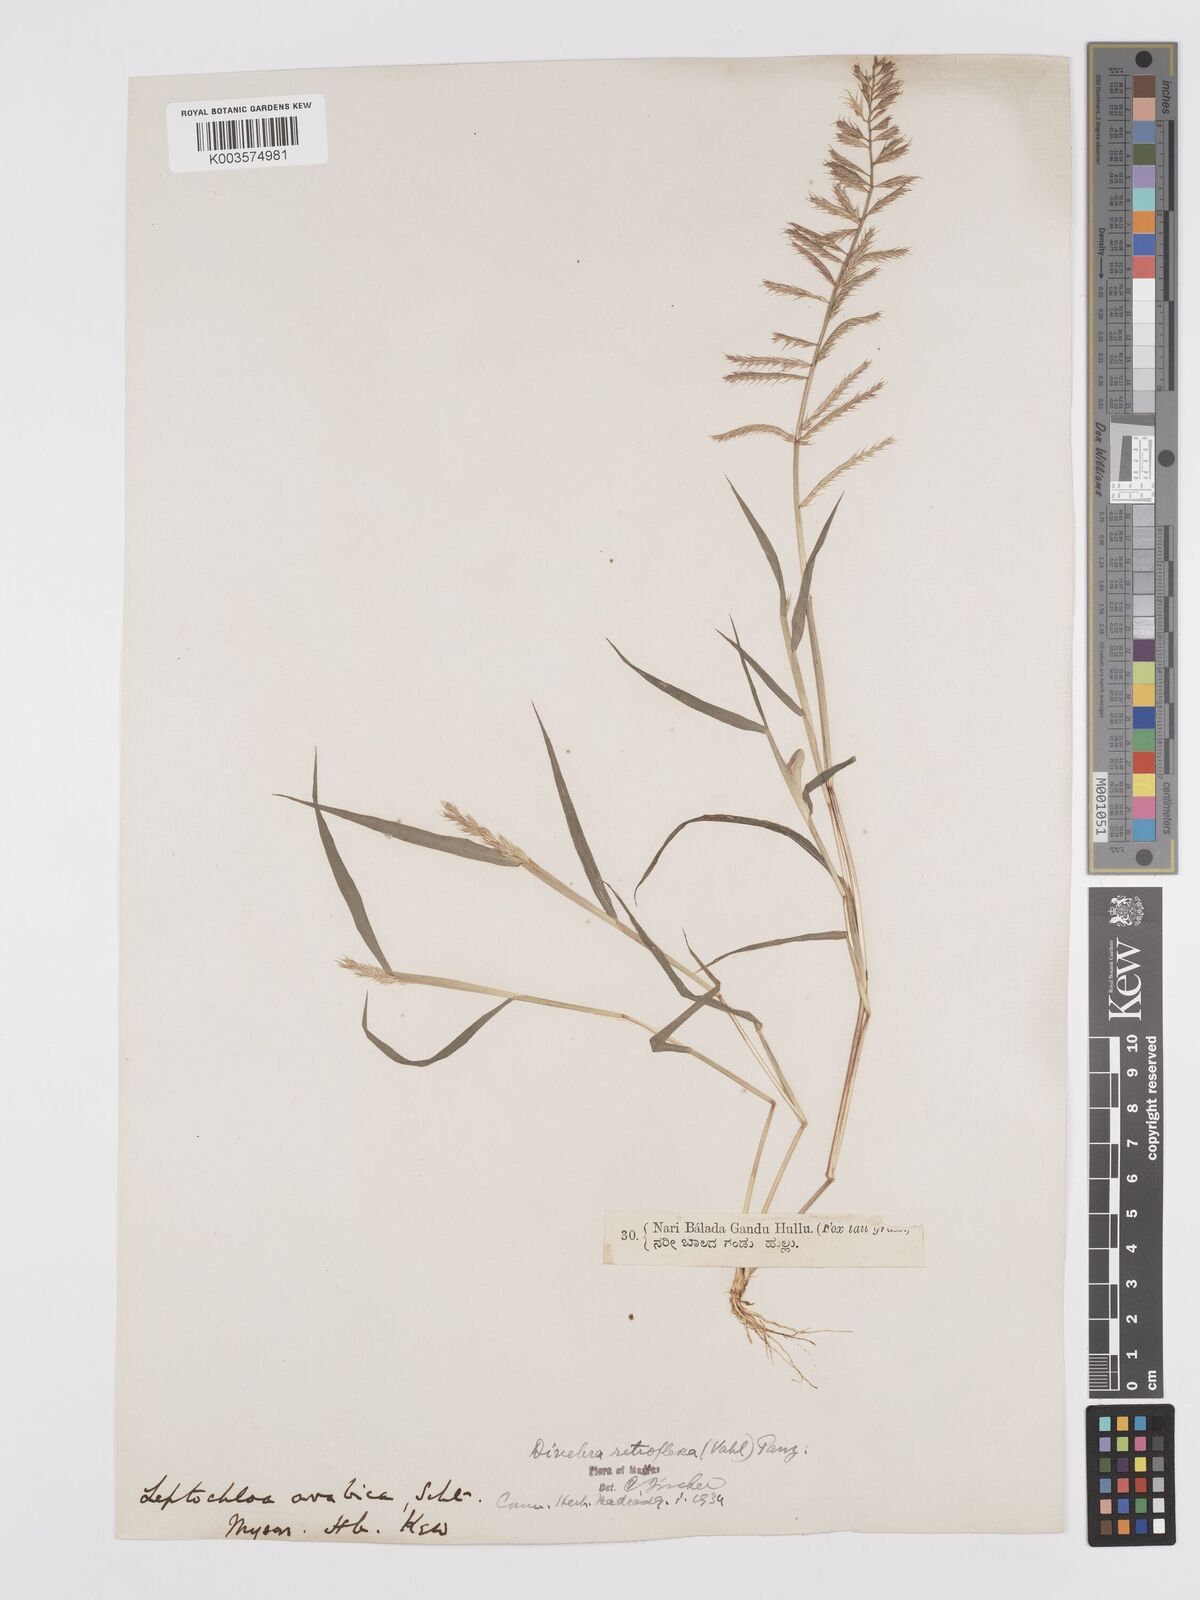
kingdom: Plantae
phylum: Tracheophyta
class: Liliopsida
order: Poales
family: Poaceae
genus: Dinebra
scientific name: Dinebra retroflexa
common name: Viper grass
